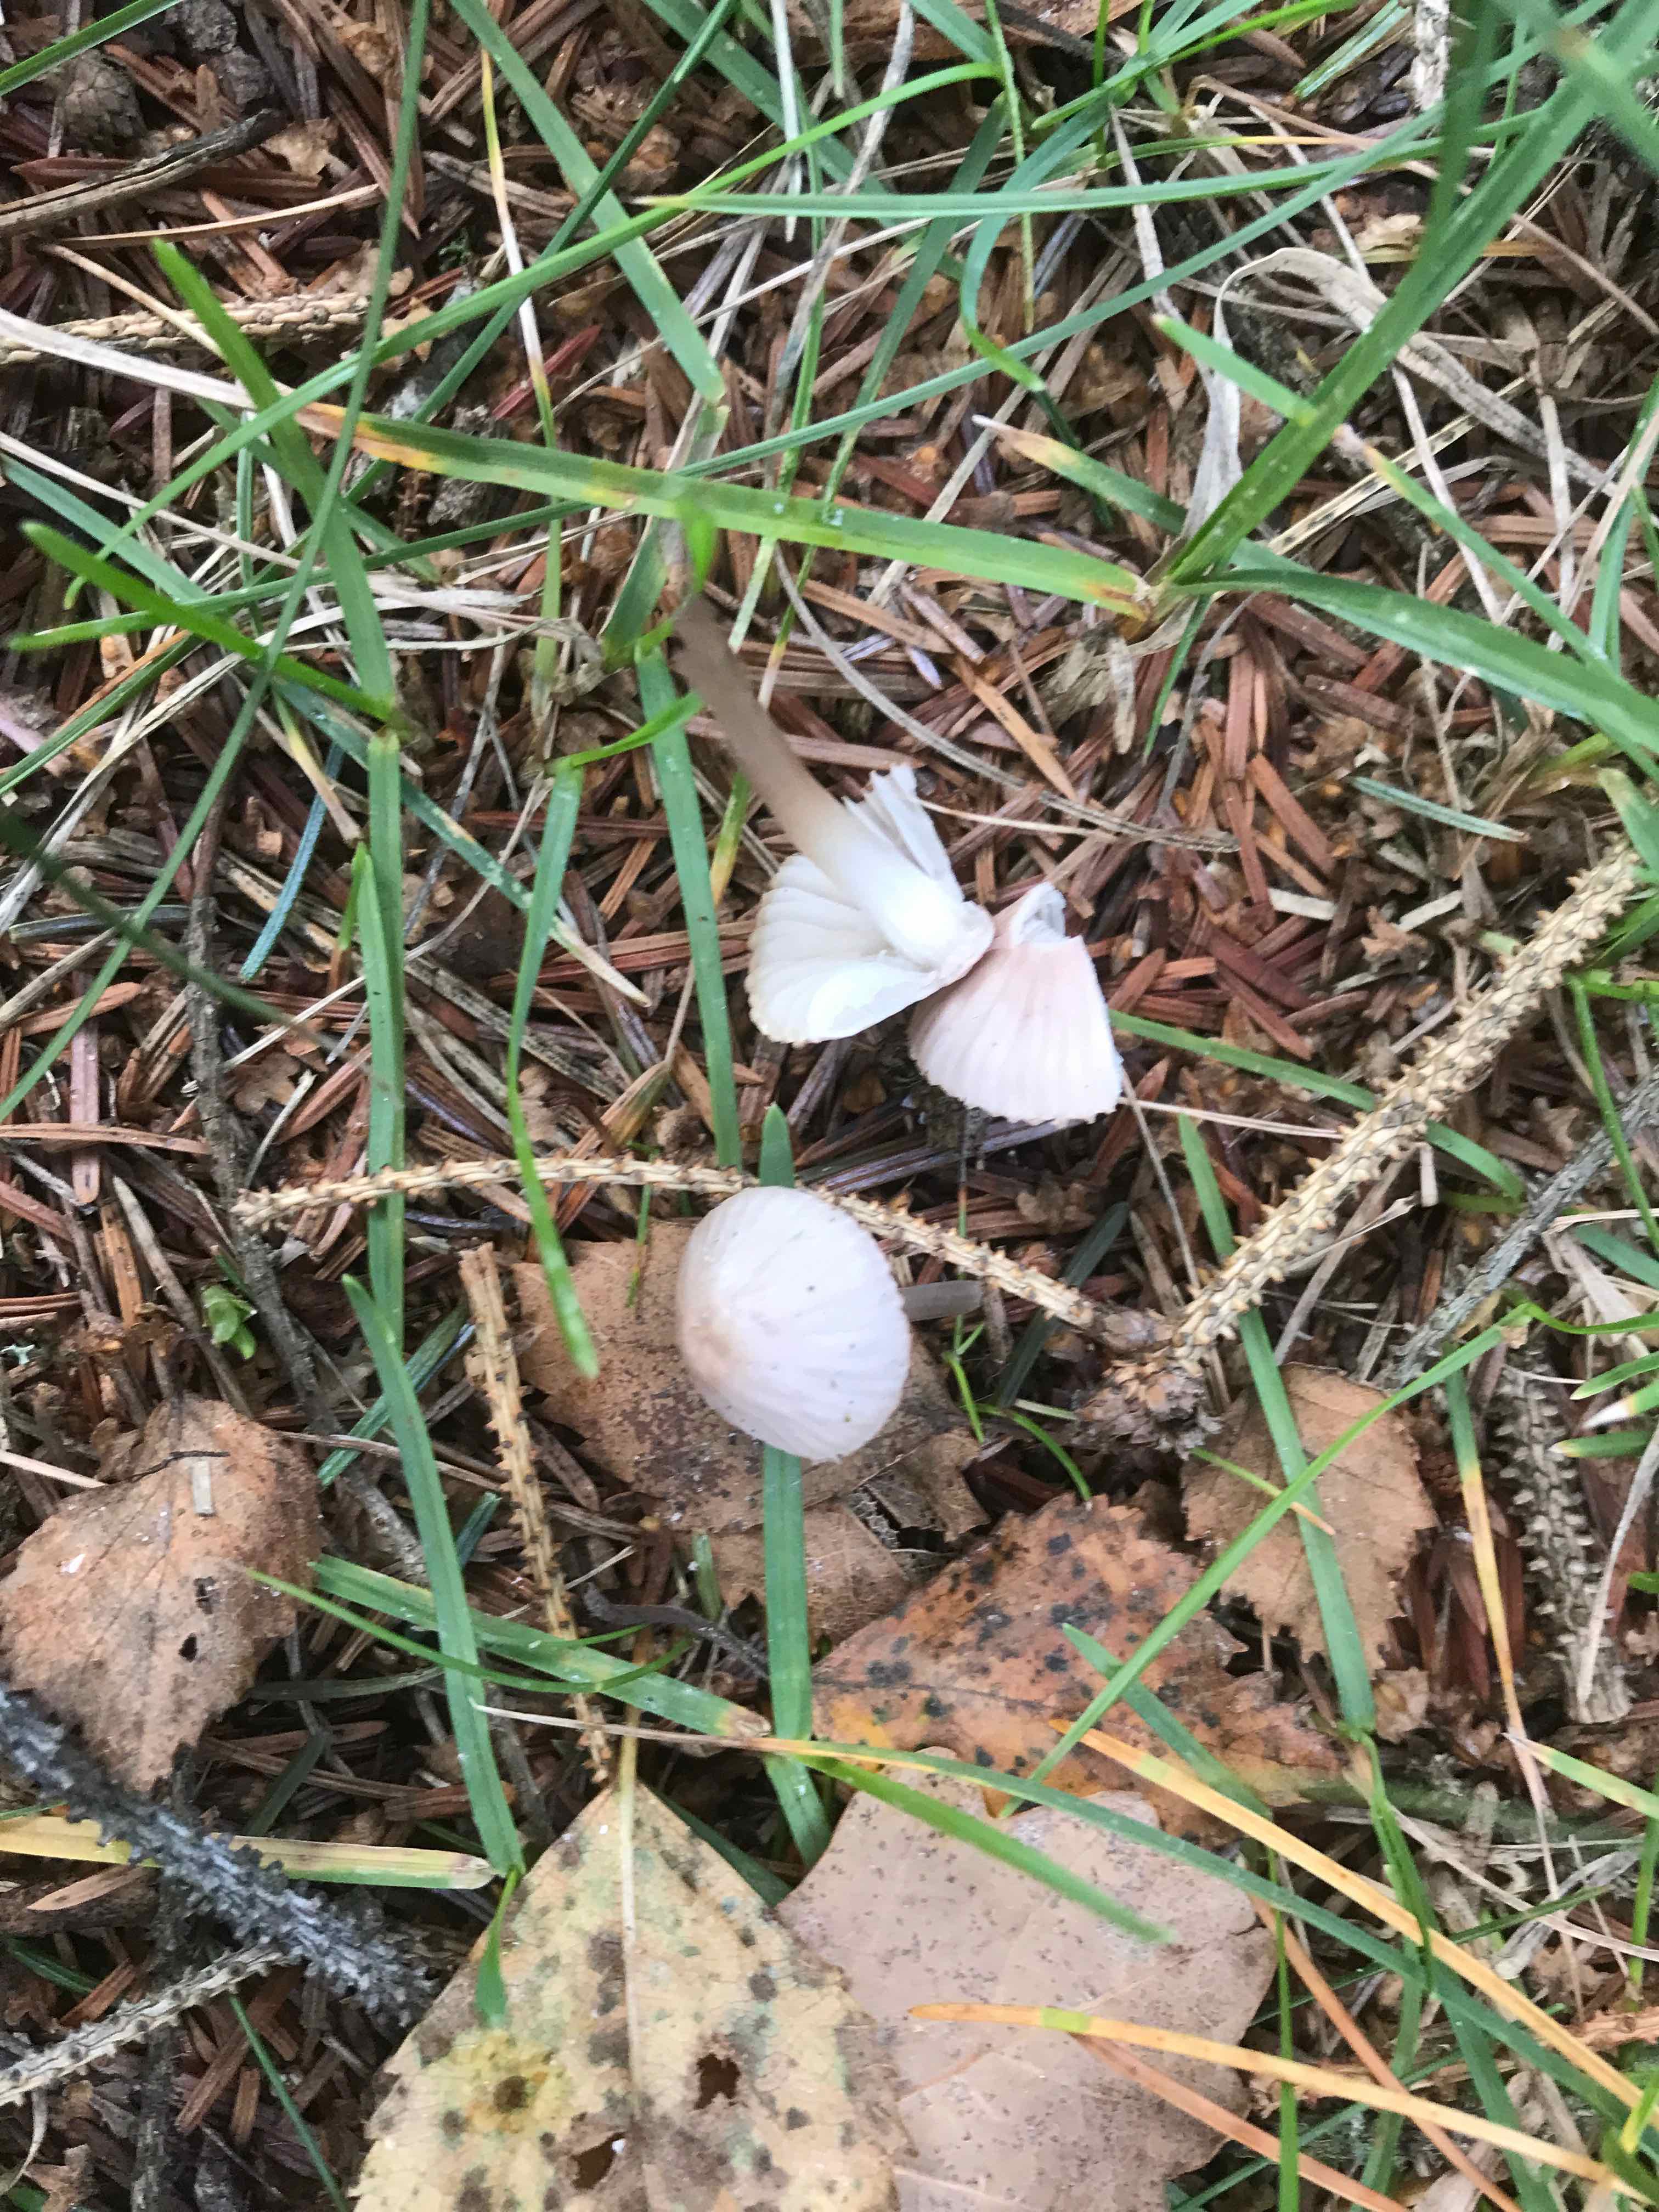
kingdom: Fungi
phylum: Basidiomycota
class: Agaricomycetes
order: Agaricales
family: Mycenaceae
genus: Mycena
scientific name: Mycena leptocephala
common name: klor-huesvamp
